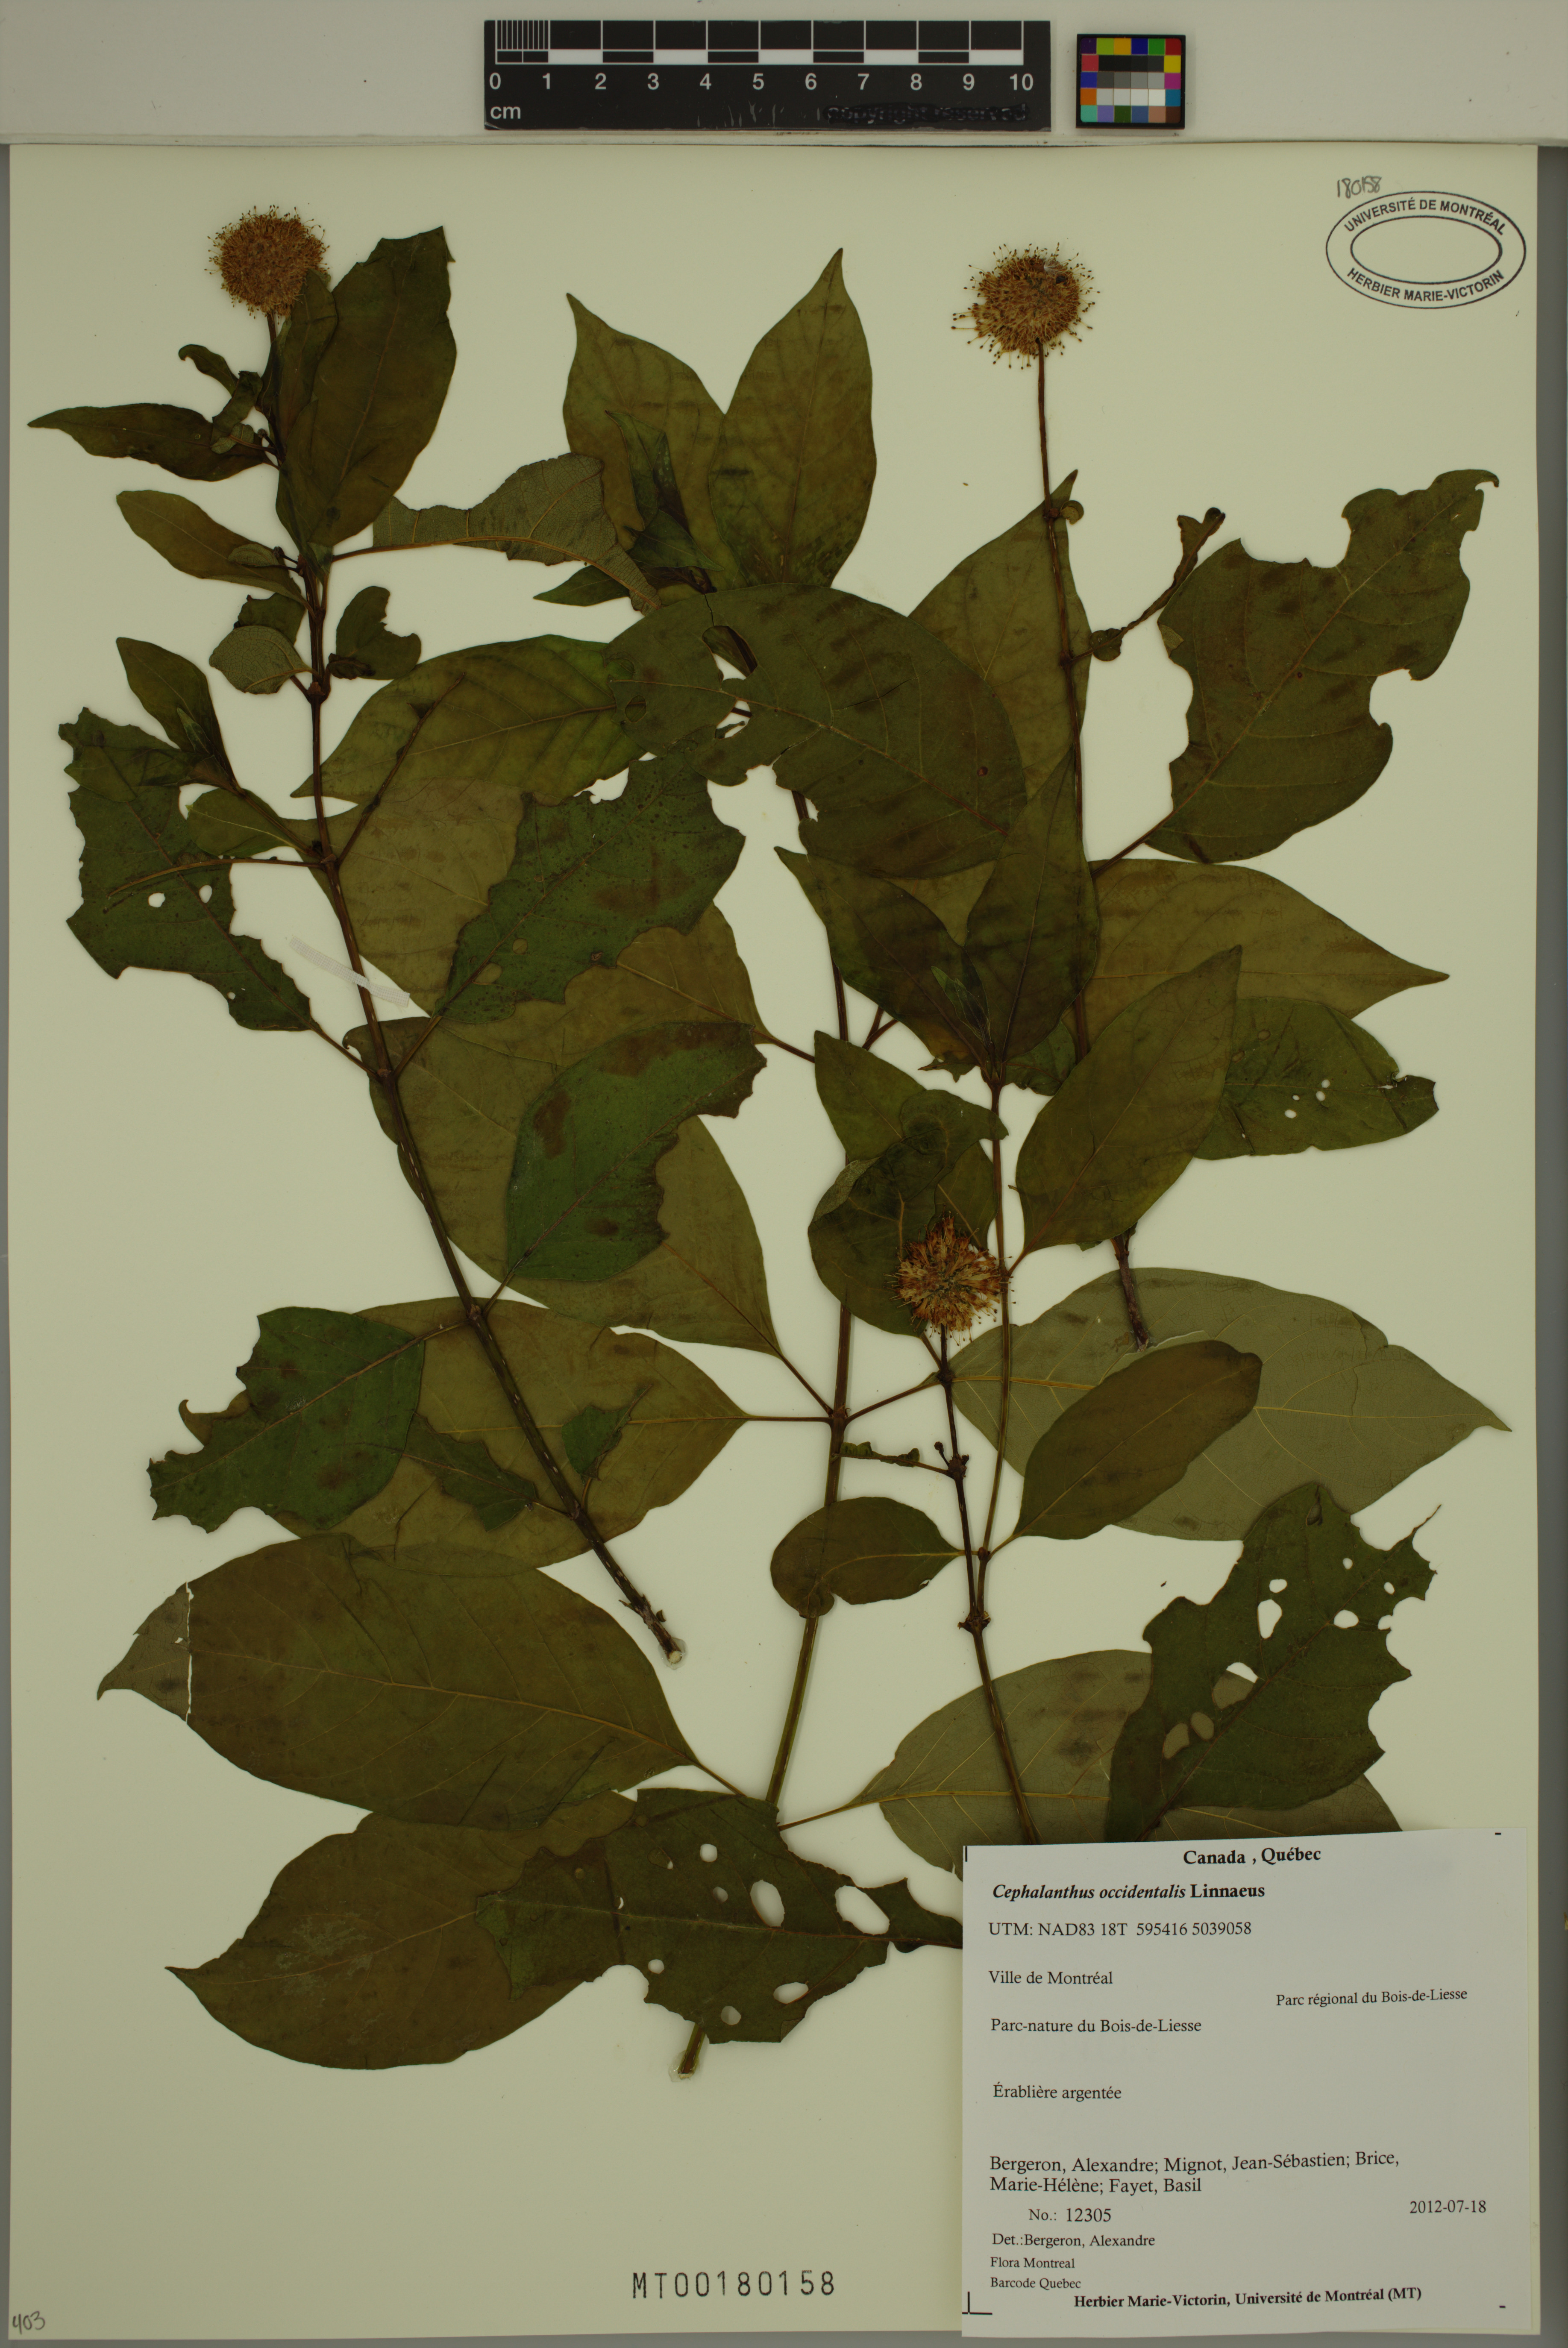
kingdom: Plantae
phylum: Tracheophyta
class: Magnoliopsida
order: Gentianales
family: Rubiaceae
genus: Cephalanthus
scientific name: Cephalanthus occidentalis
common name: Button-willow
